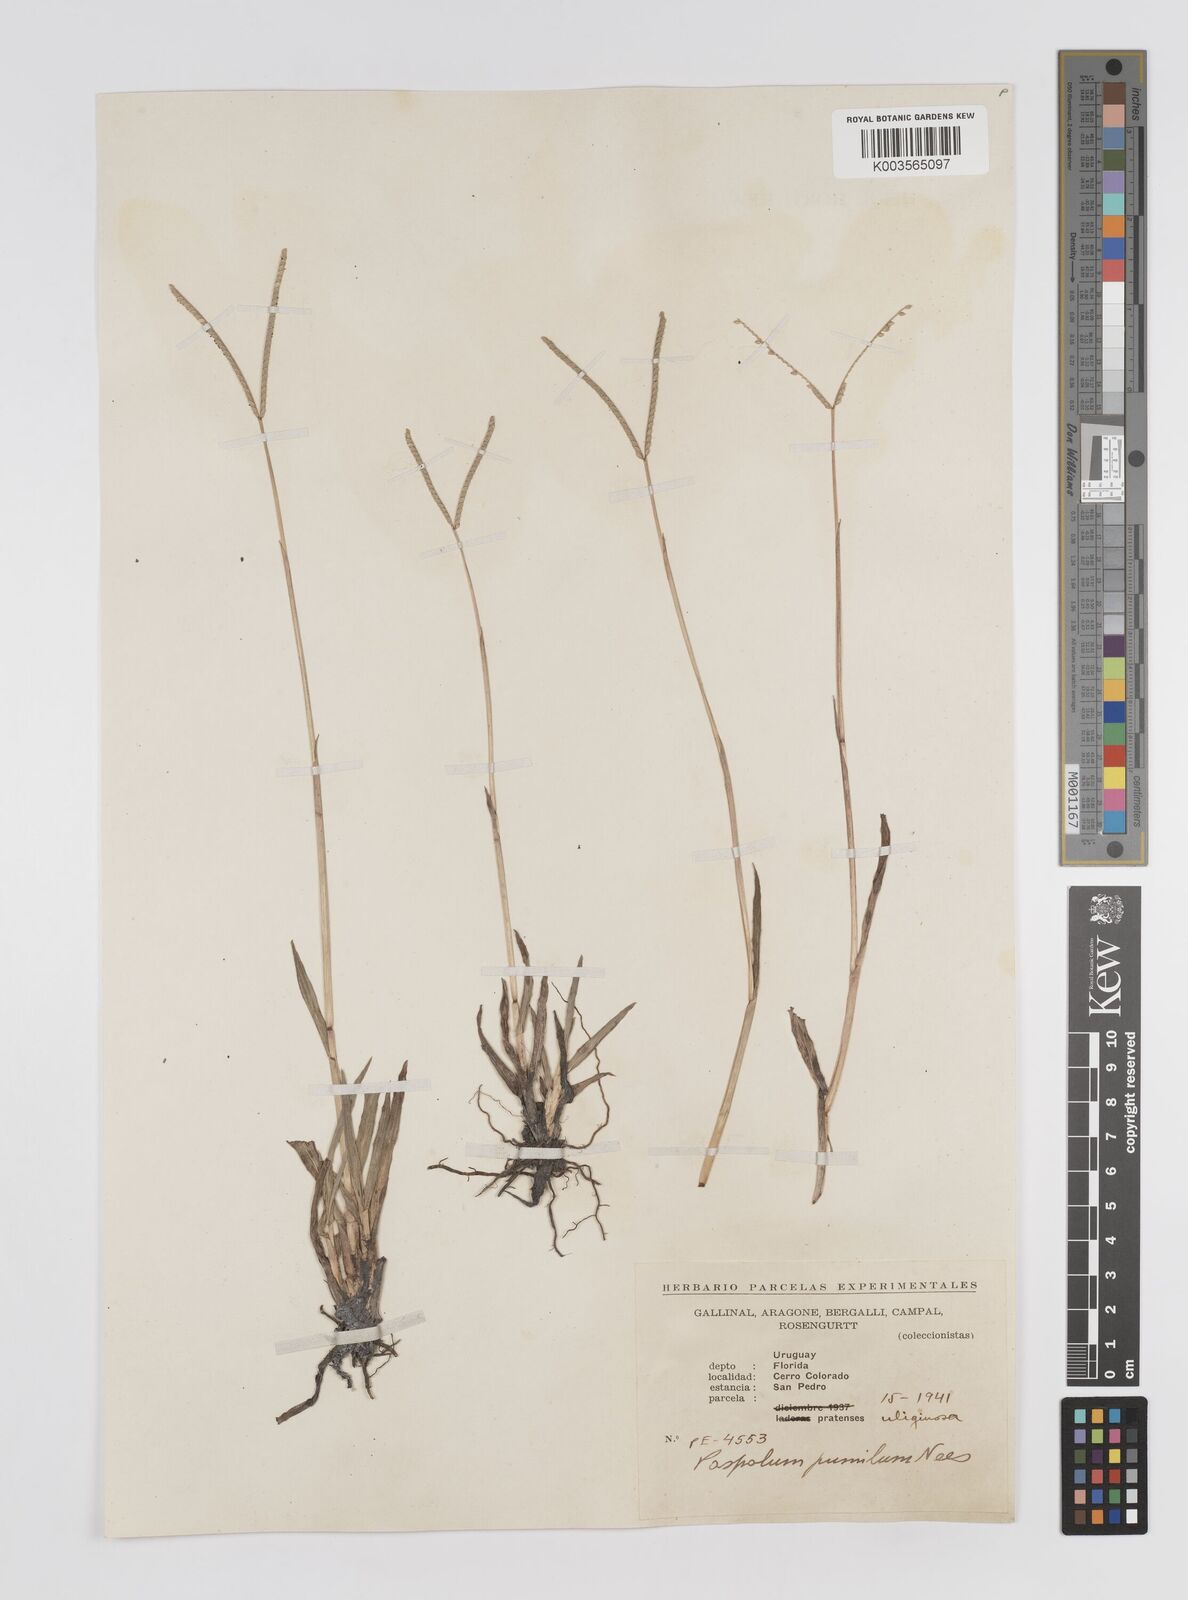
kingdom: Plantae
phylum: Tracheophyta
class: Liliopsida
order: Poales
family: Poaceae
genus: Paspalum
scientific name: Paspalum clavuliferum
